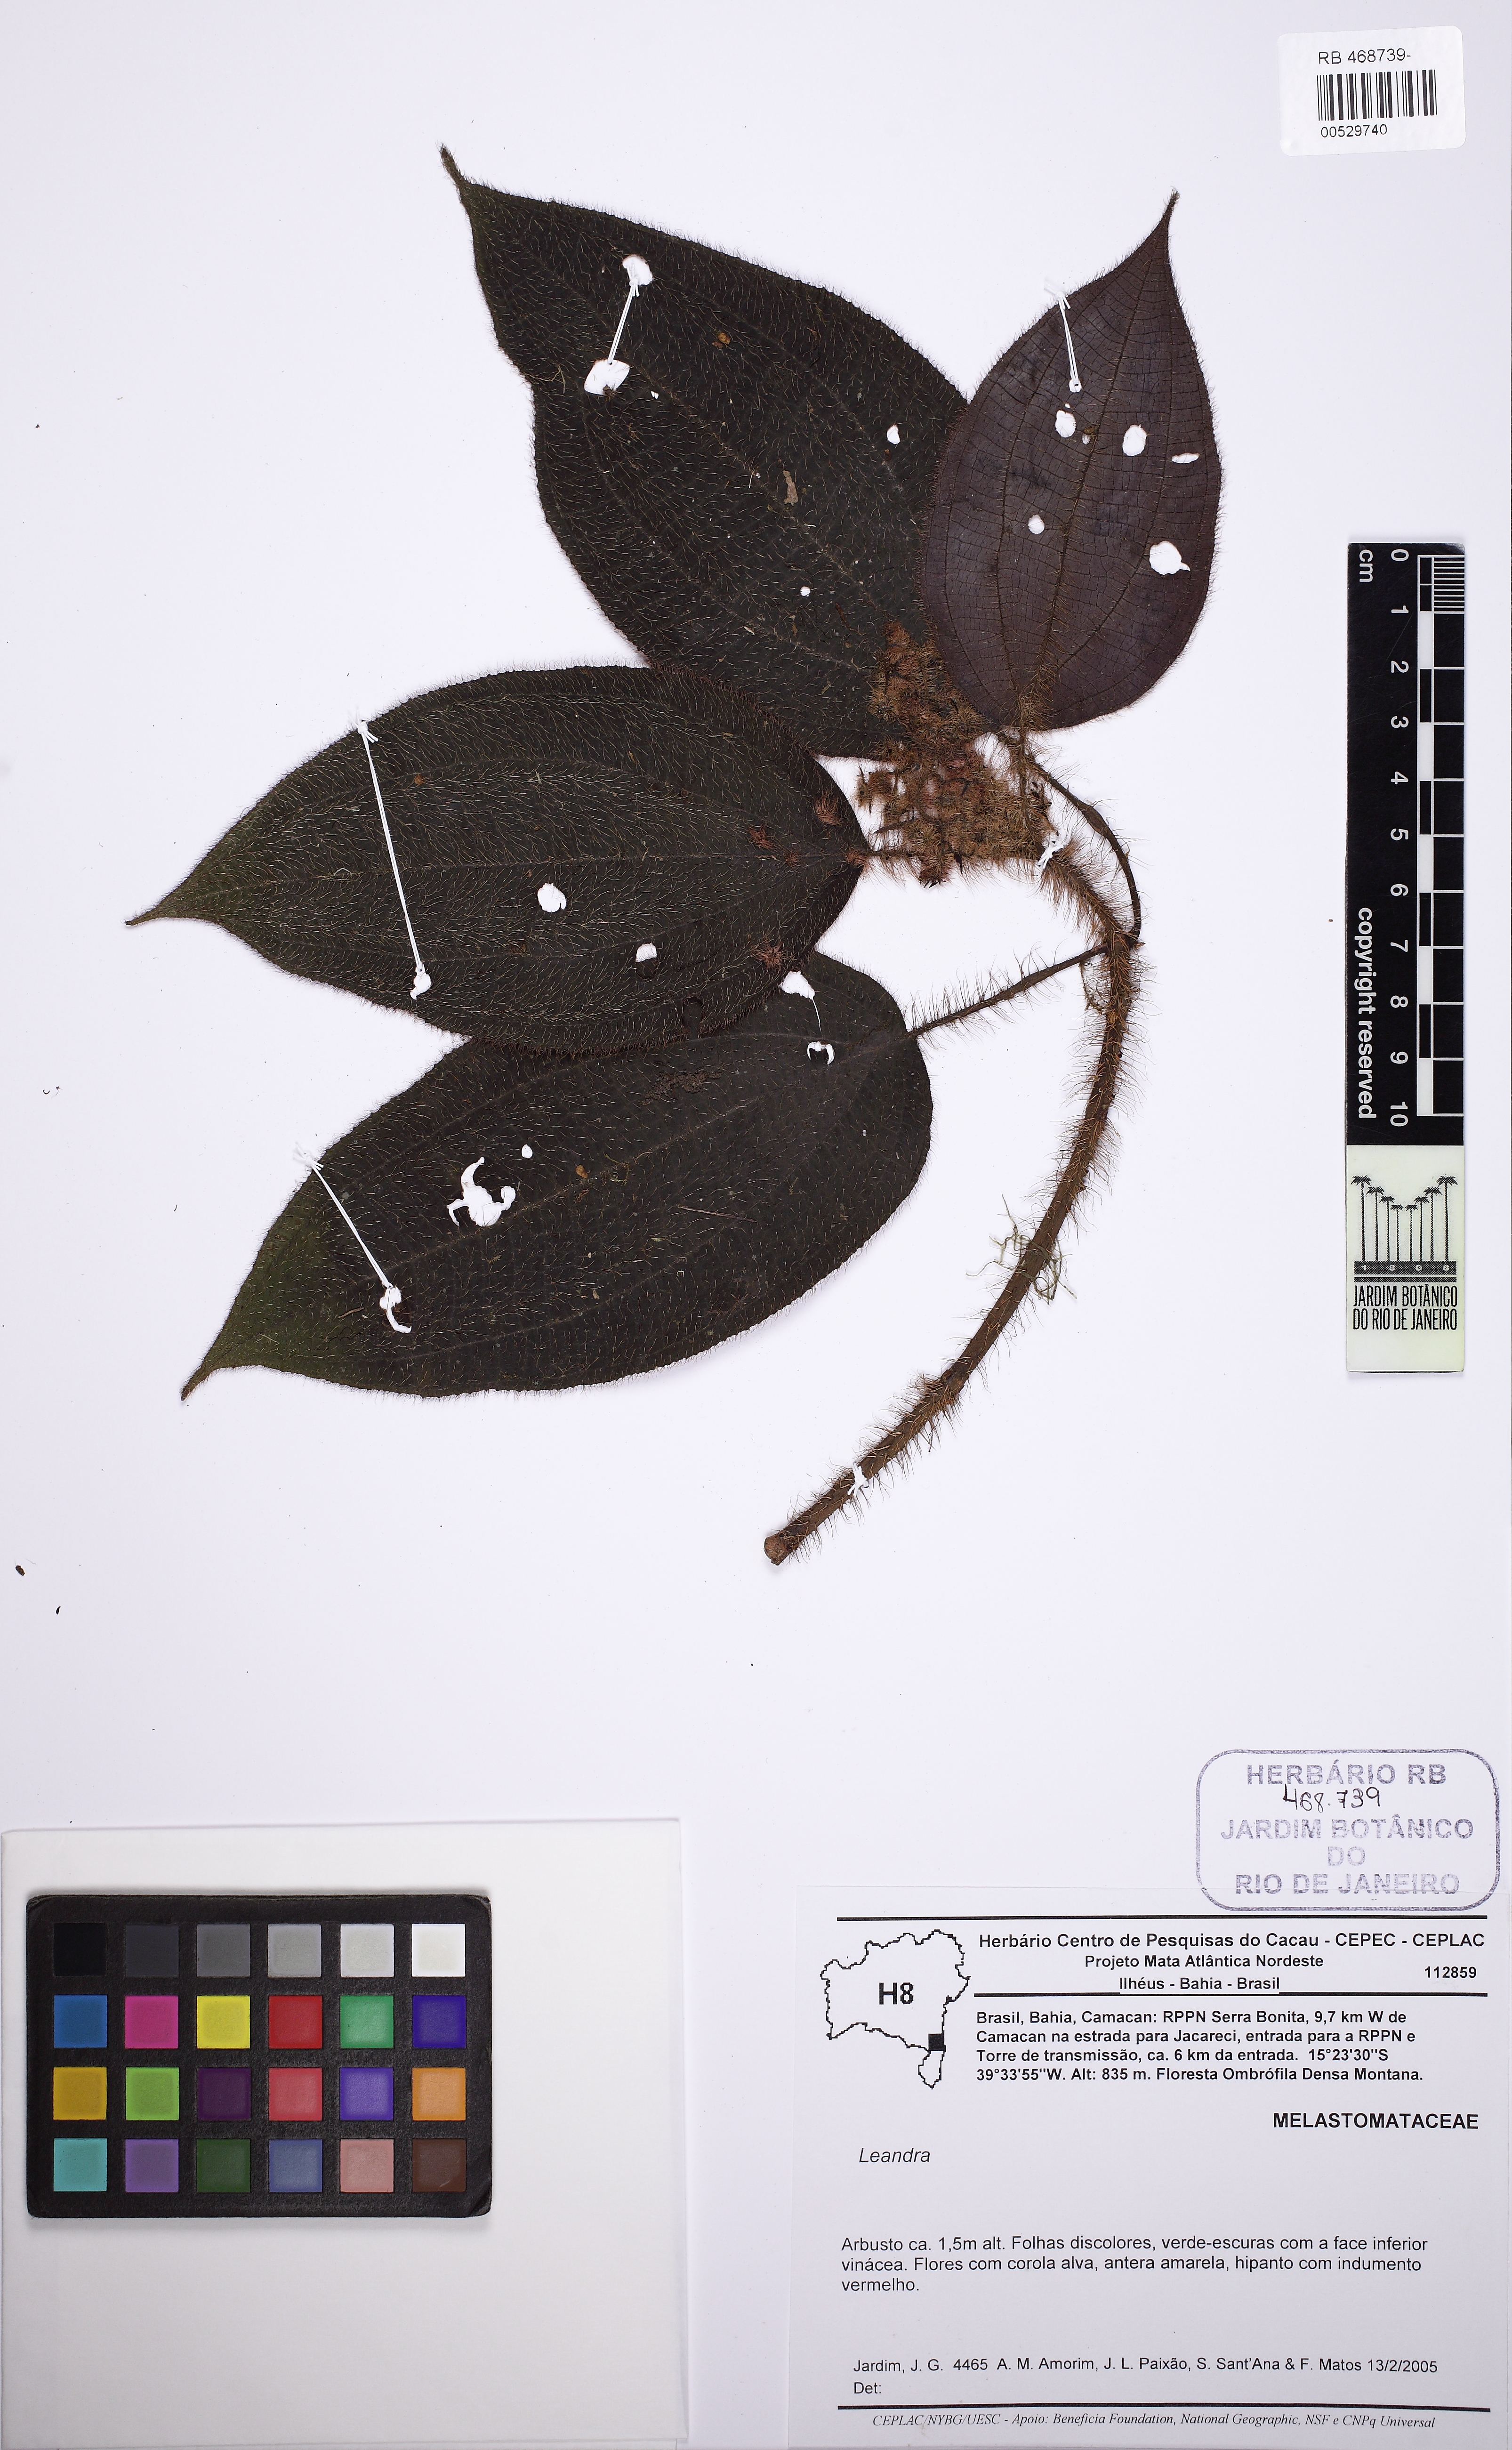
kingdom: Plantae
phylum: Tracheophyta
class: Magnoliopsida
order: Myrtales
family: Melastomataceae
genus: Miconia
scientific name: Miconia
